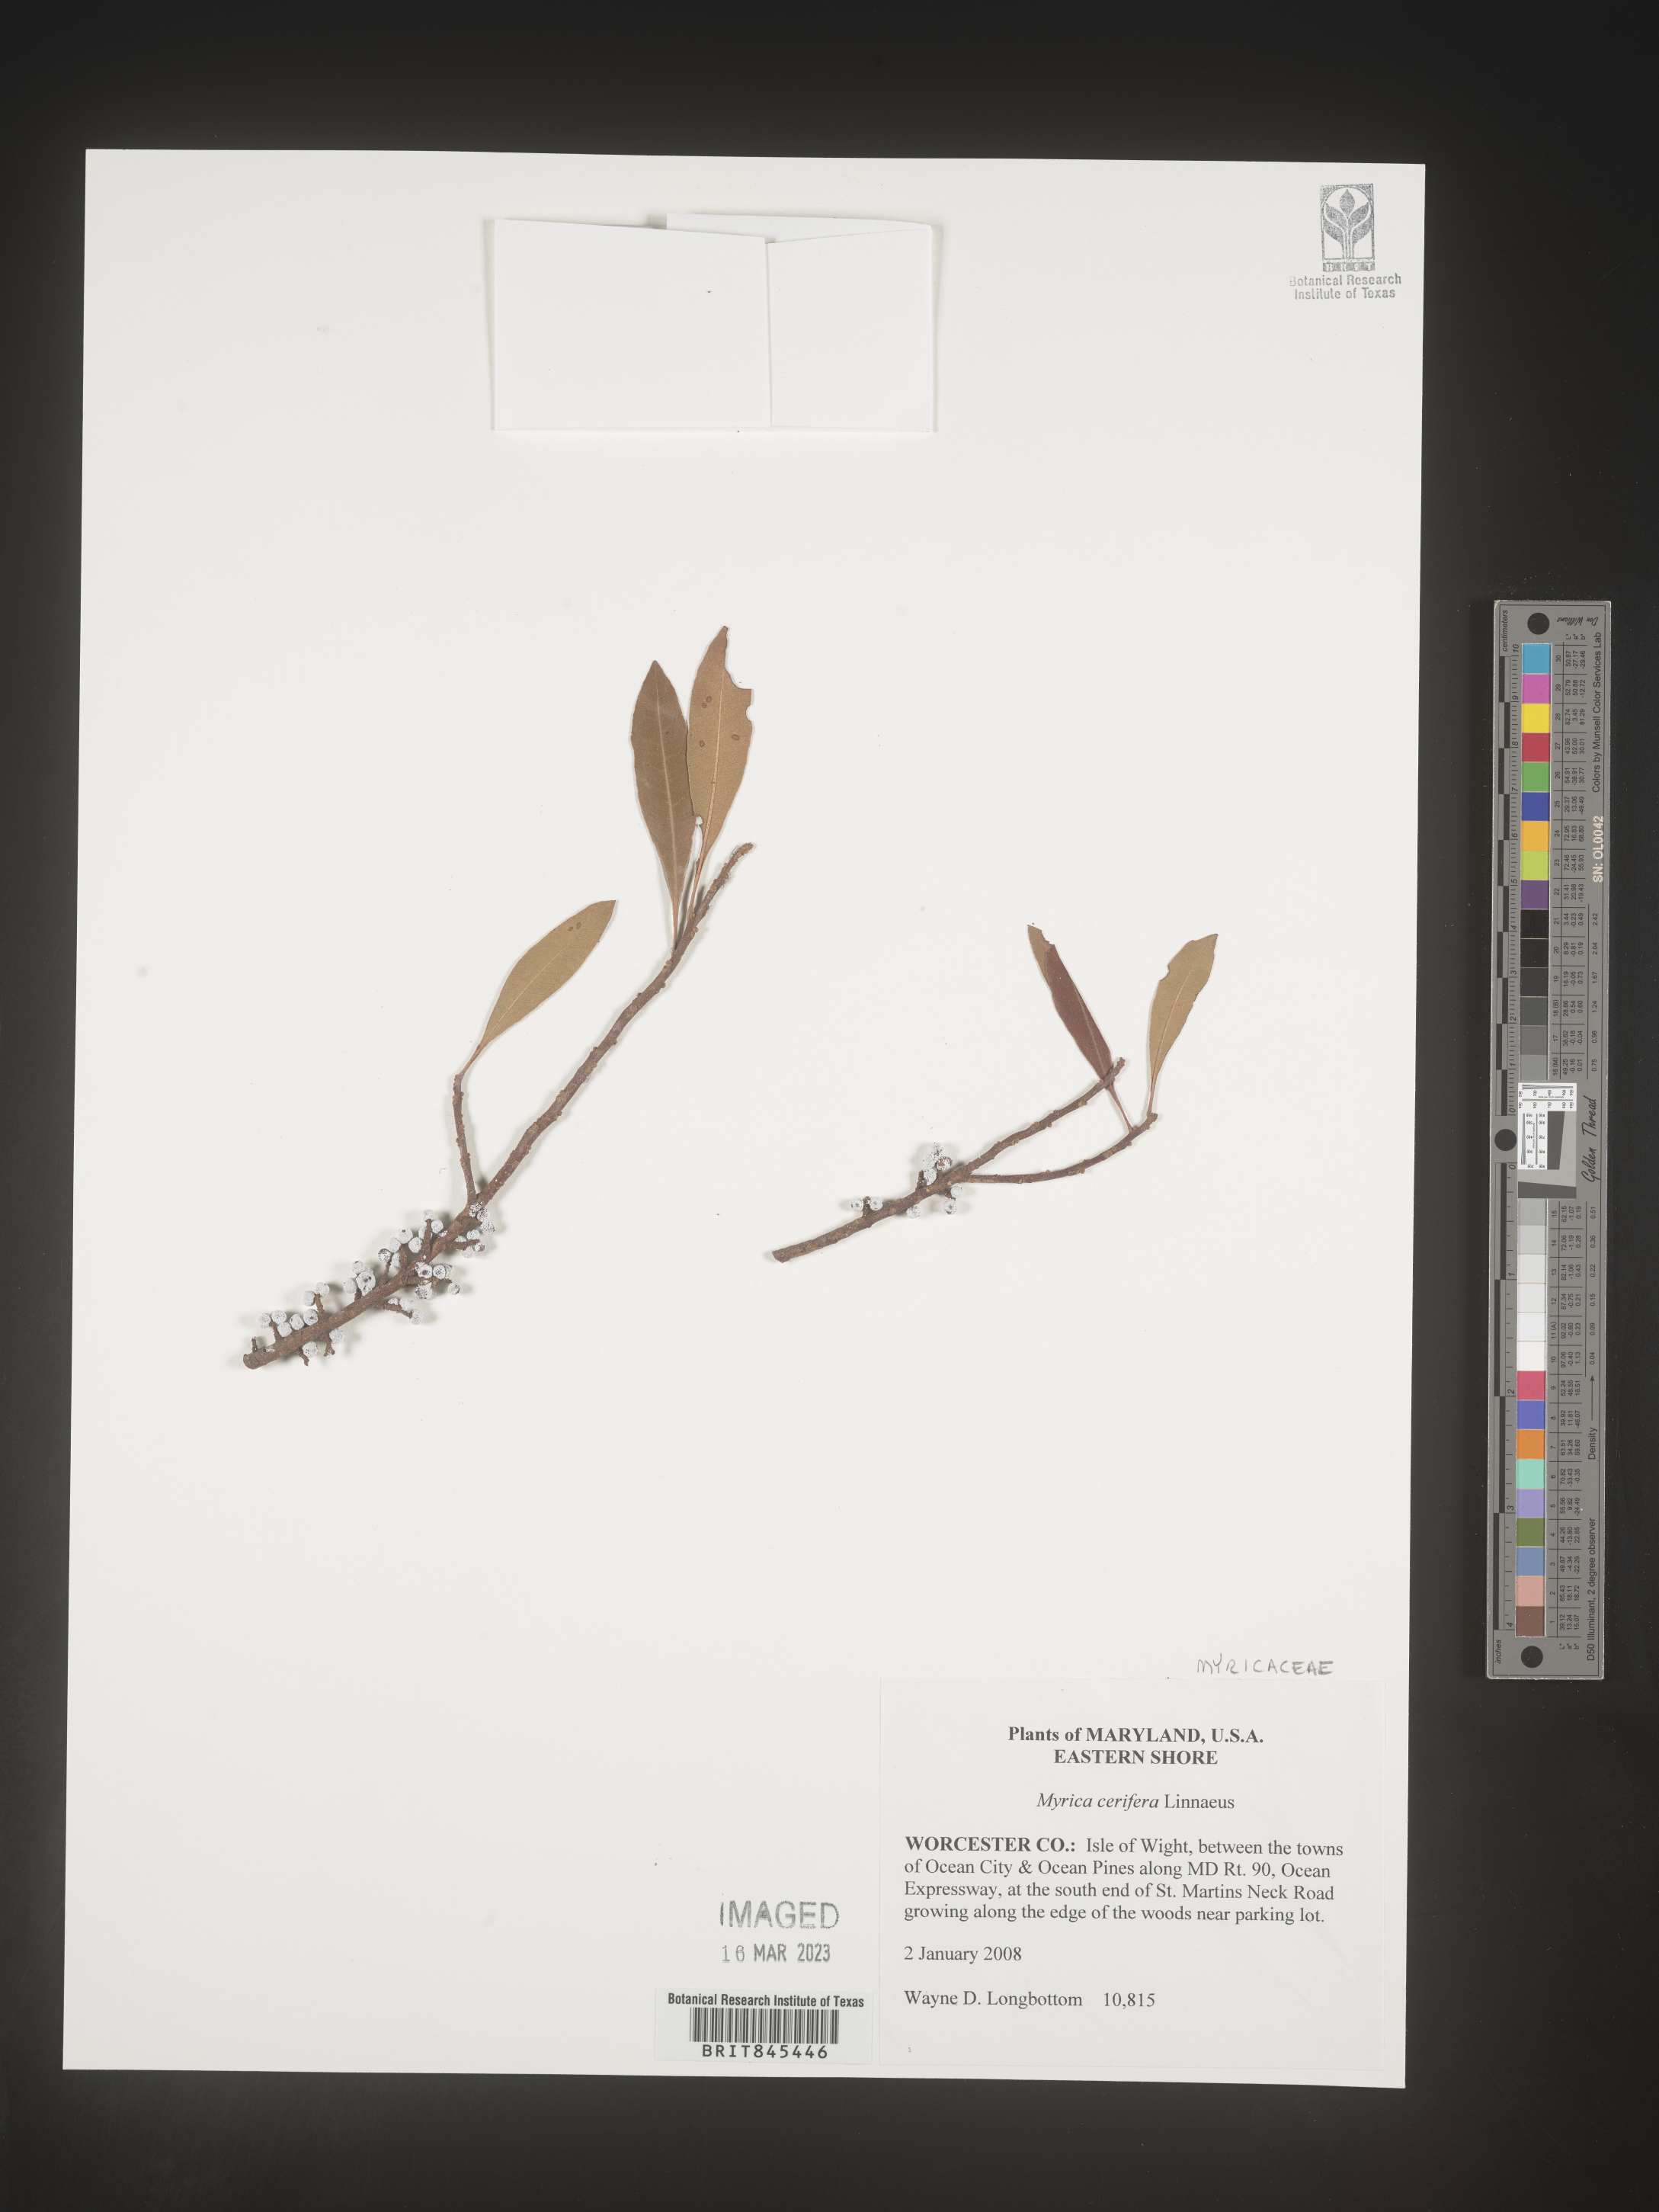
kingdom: Plantae
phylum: Tracheophyta
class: Magnoliopsida
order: Fagales
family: Myricaceae
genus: Morella
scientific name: Morella cerifera
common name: Wax myrtle
